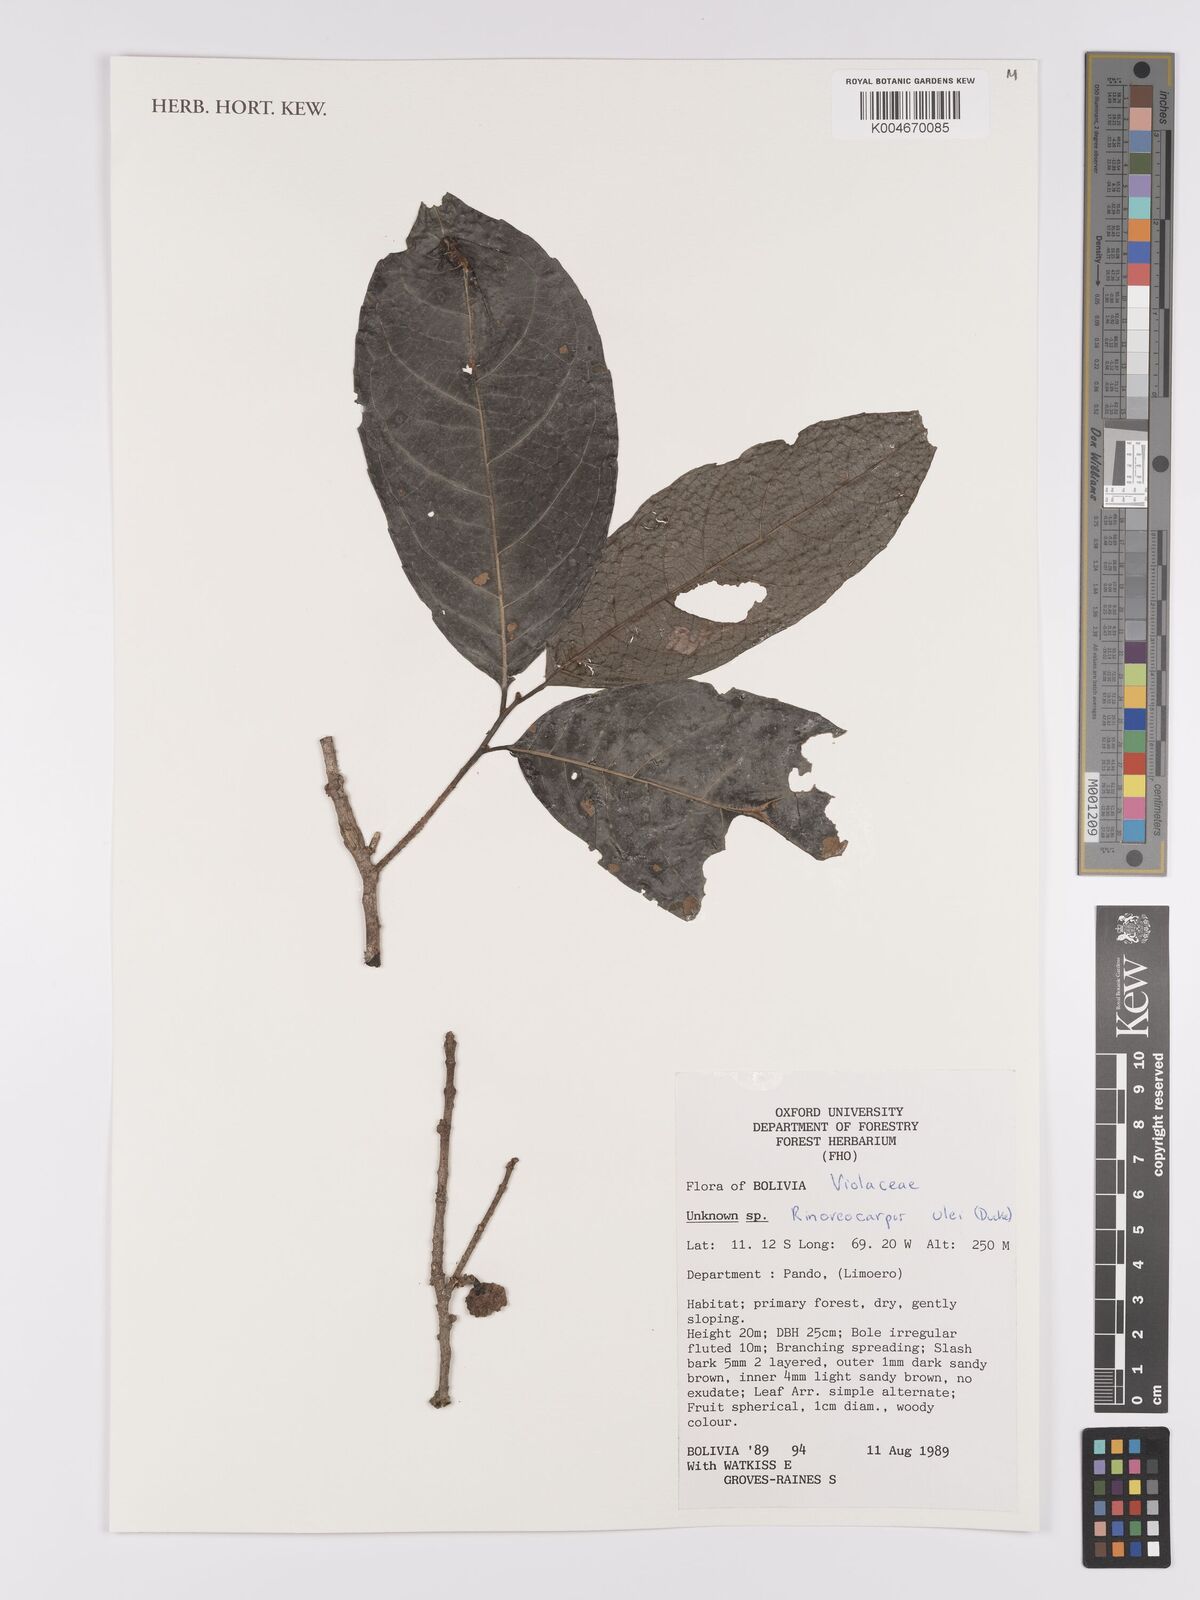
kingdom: Plantae
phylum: Tracheophyta
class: Magnoliopsida
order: Malpighiales
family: Violaceae
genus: Rinoreocarpus
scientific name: Rinoreocarpus ulei
